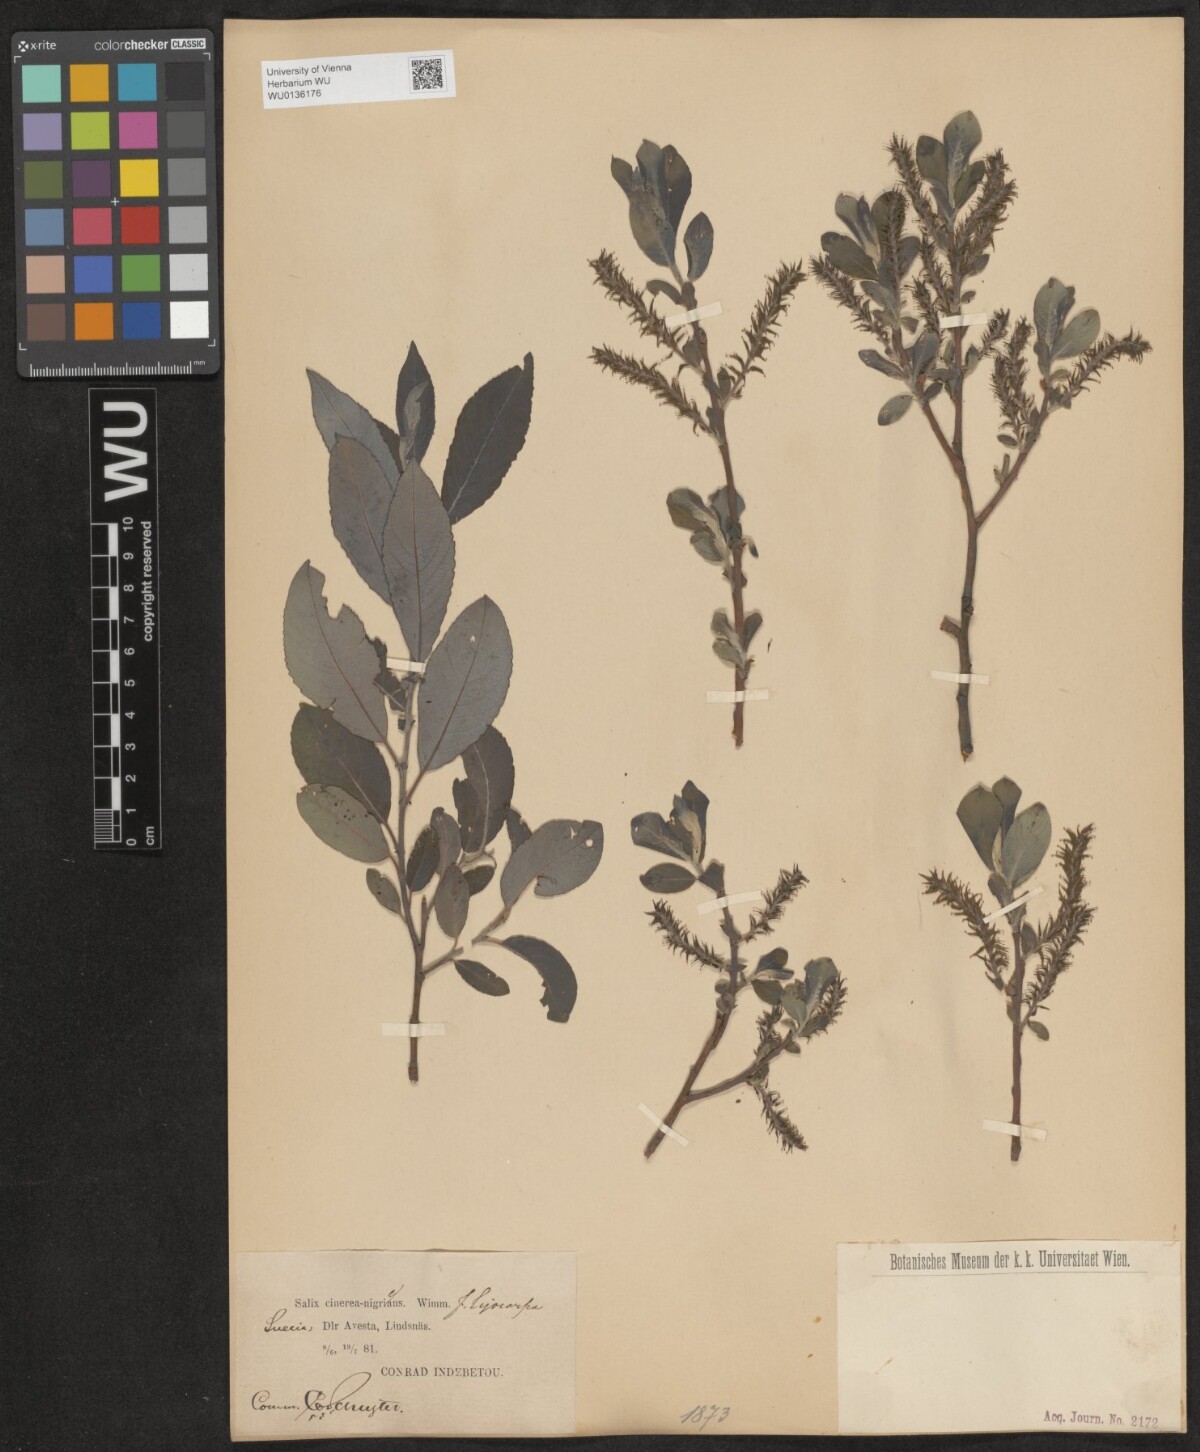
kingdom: Plantae
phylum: Tracheophyta
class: Magnoliopsida
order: Malpighiales
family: Salicaceae
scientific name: Salicaceae
